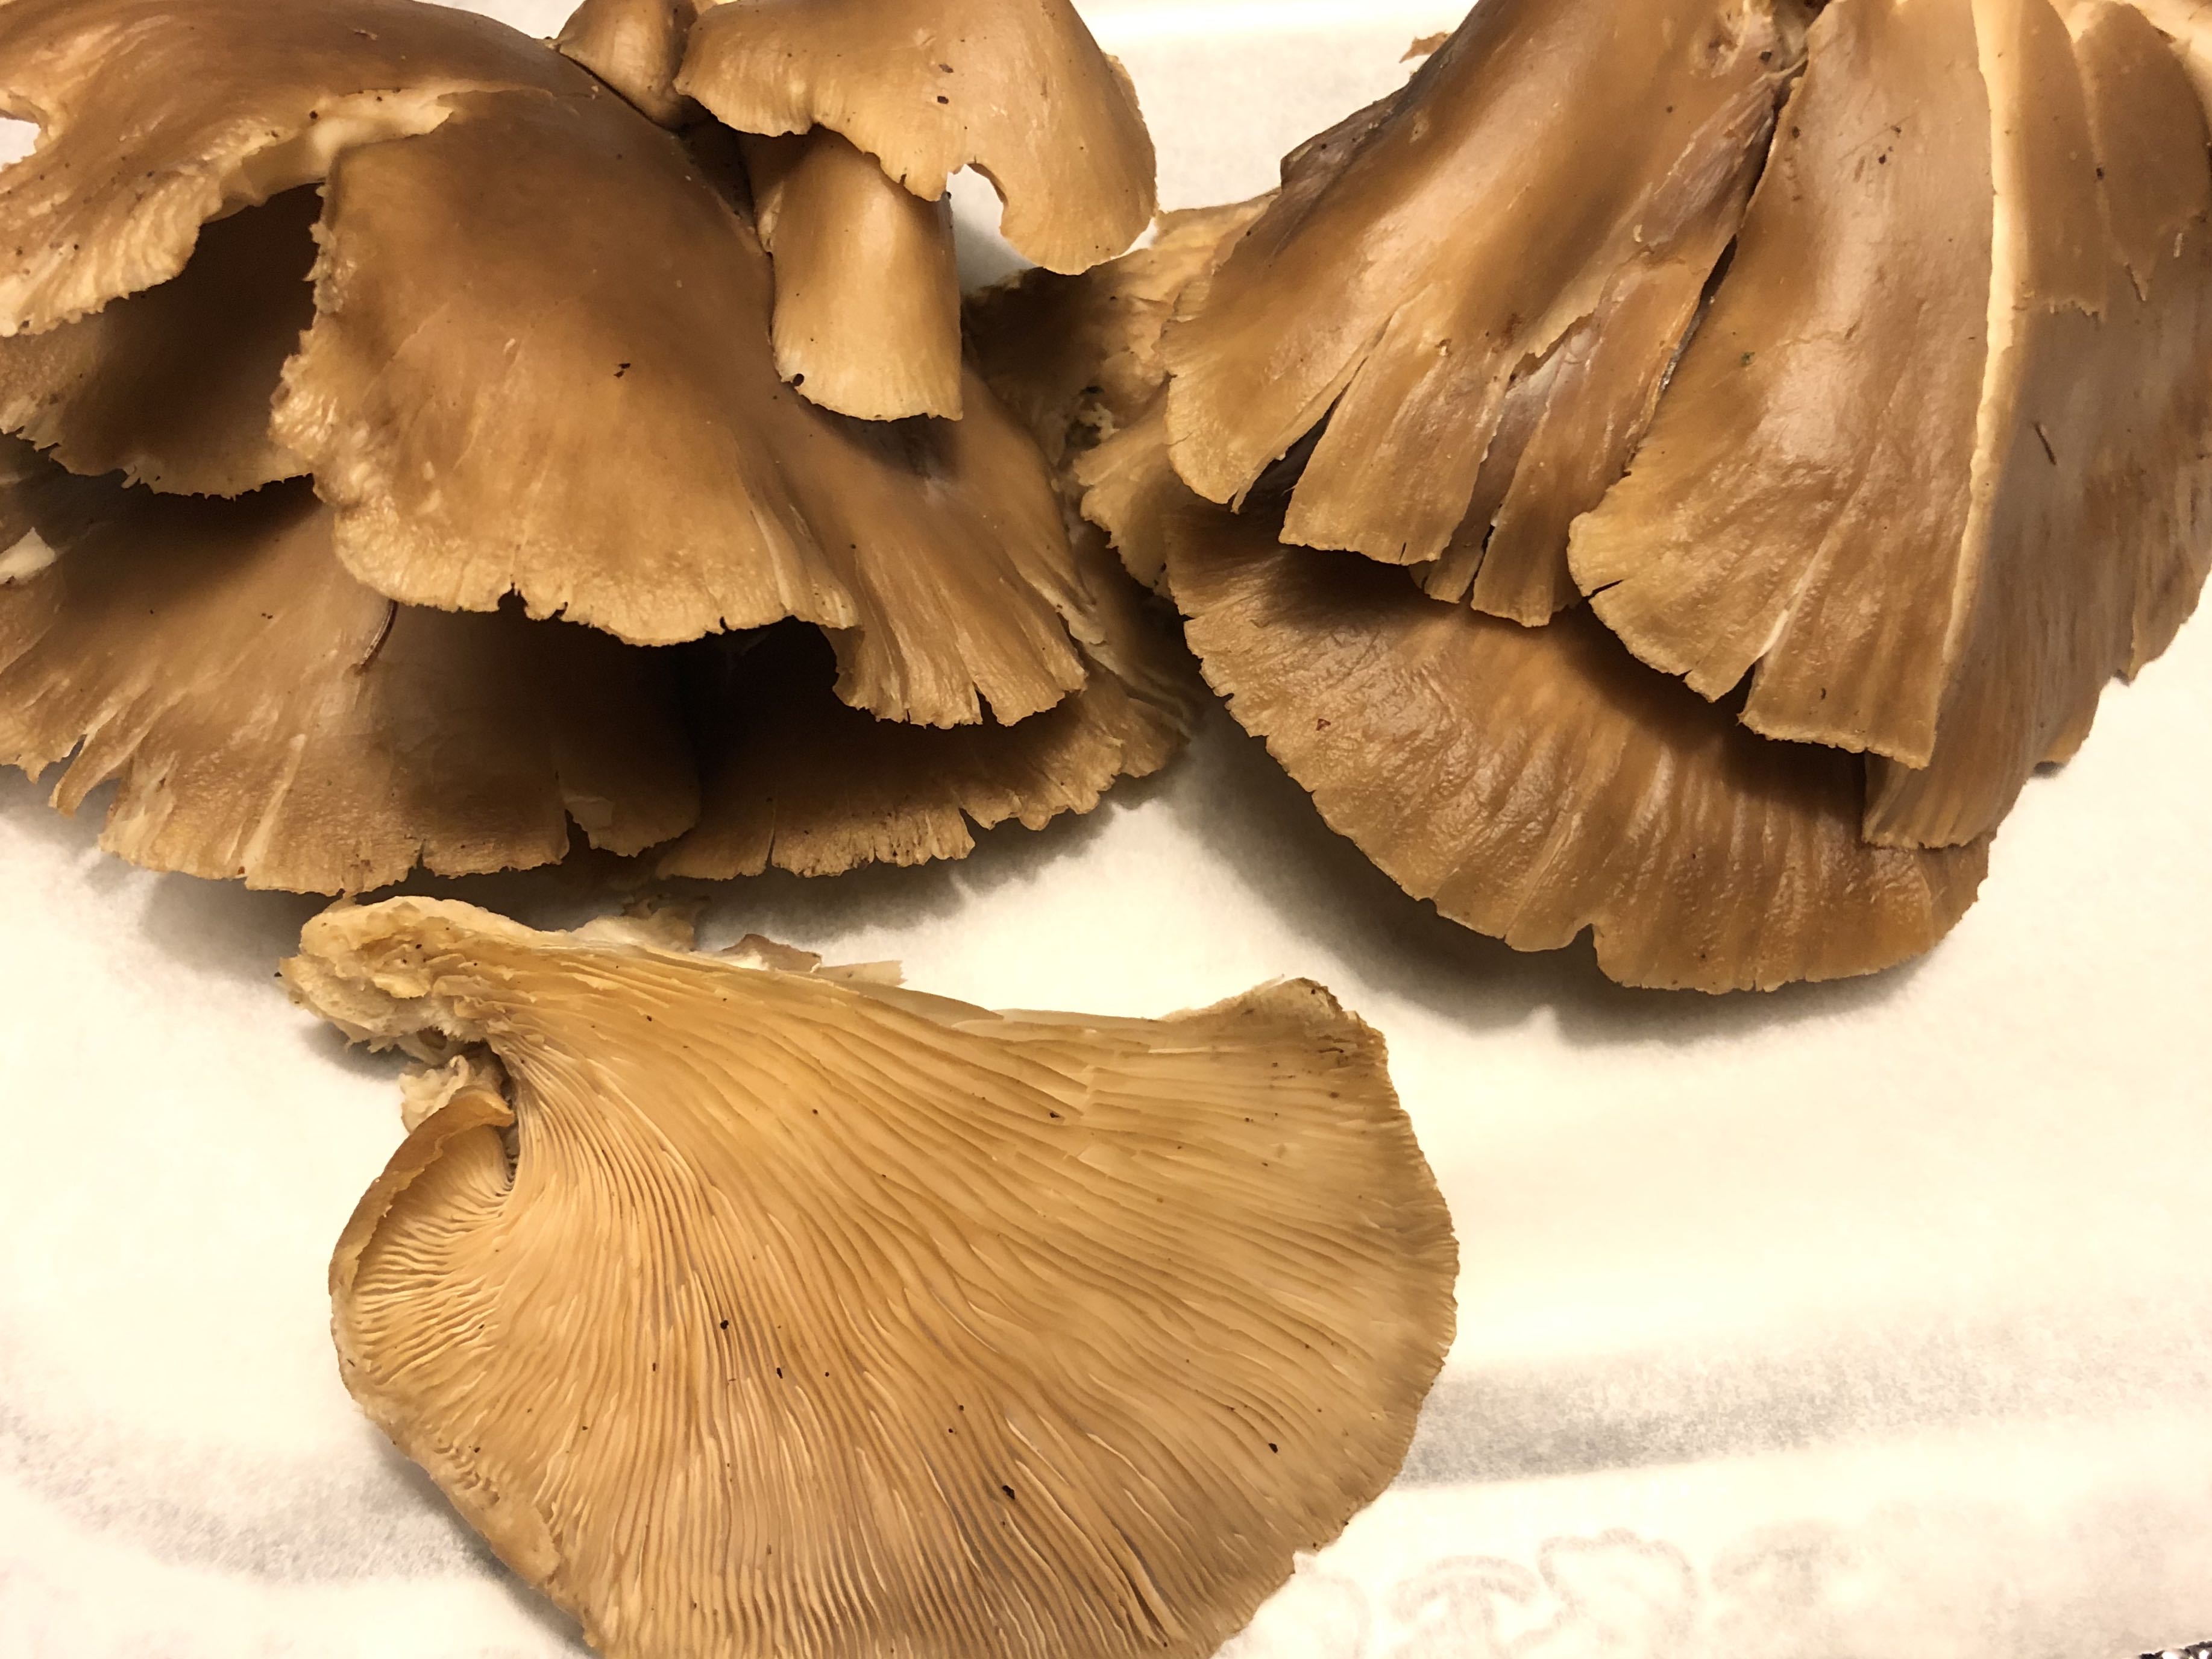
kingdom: Fungi
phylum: Basidiomycota
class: Agaricomycetes
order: Agaricales
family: Pleurotaceae
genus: Pleurotus
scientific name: Pleurotus ostreatus
